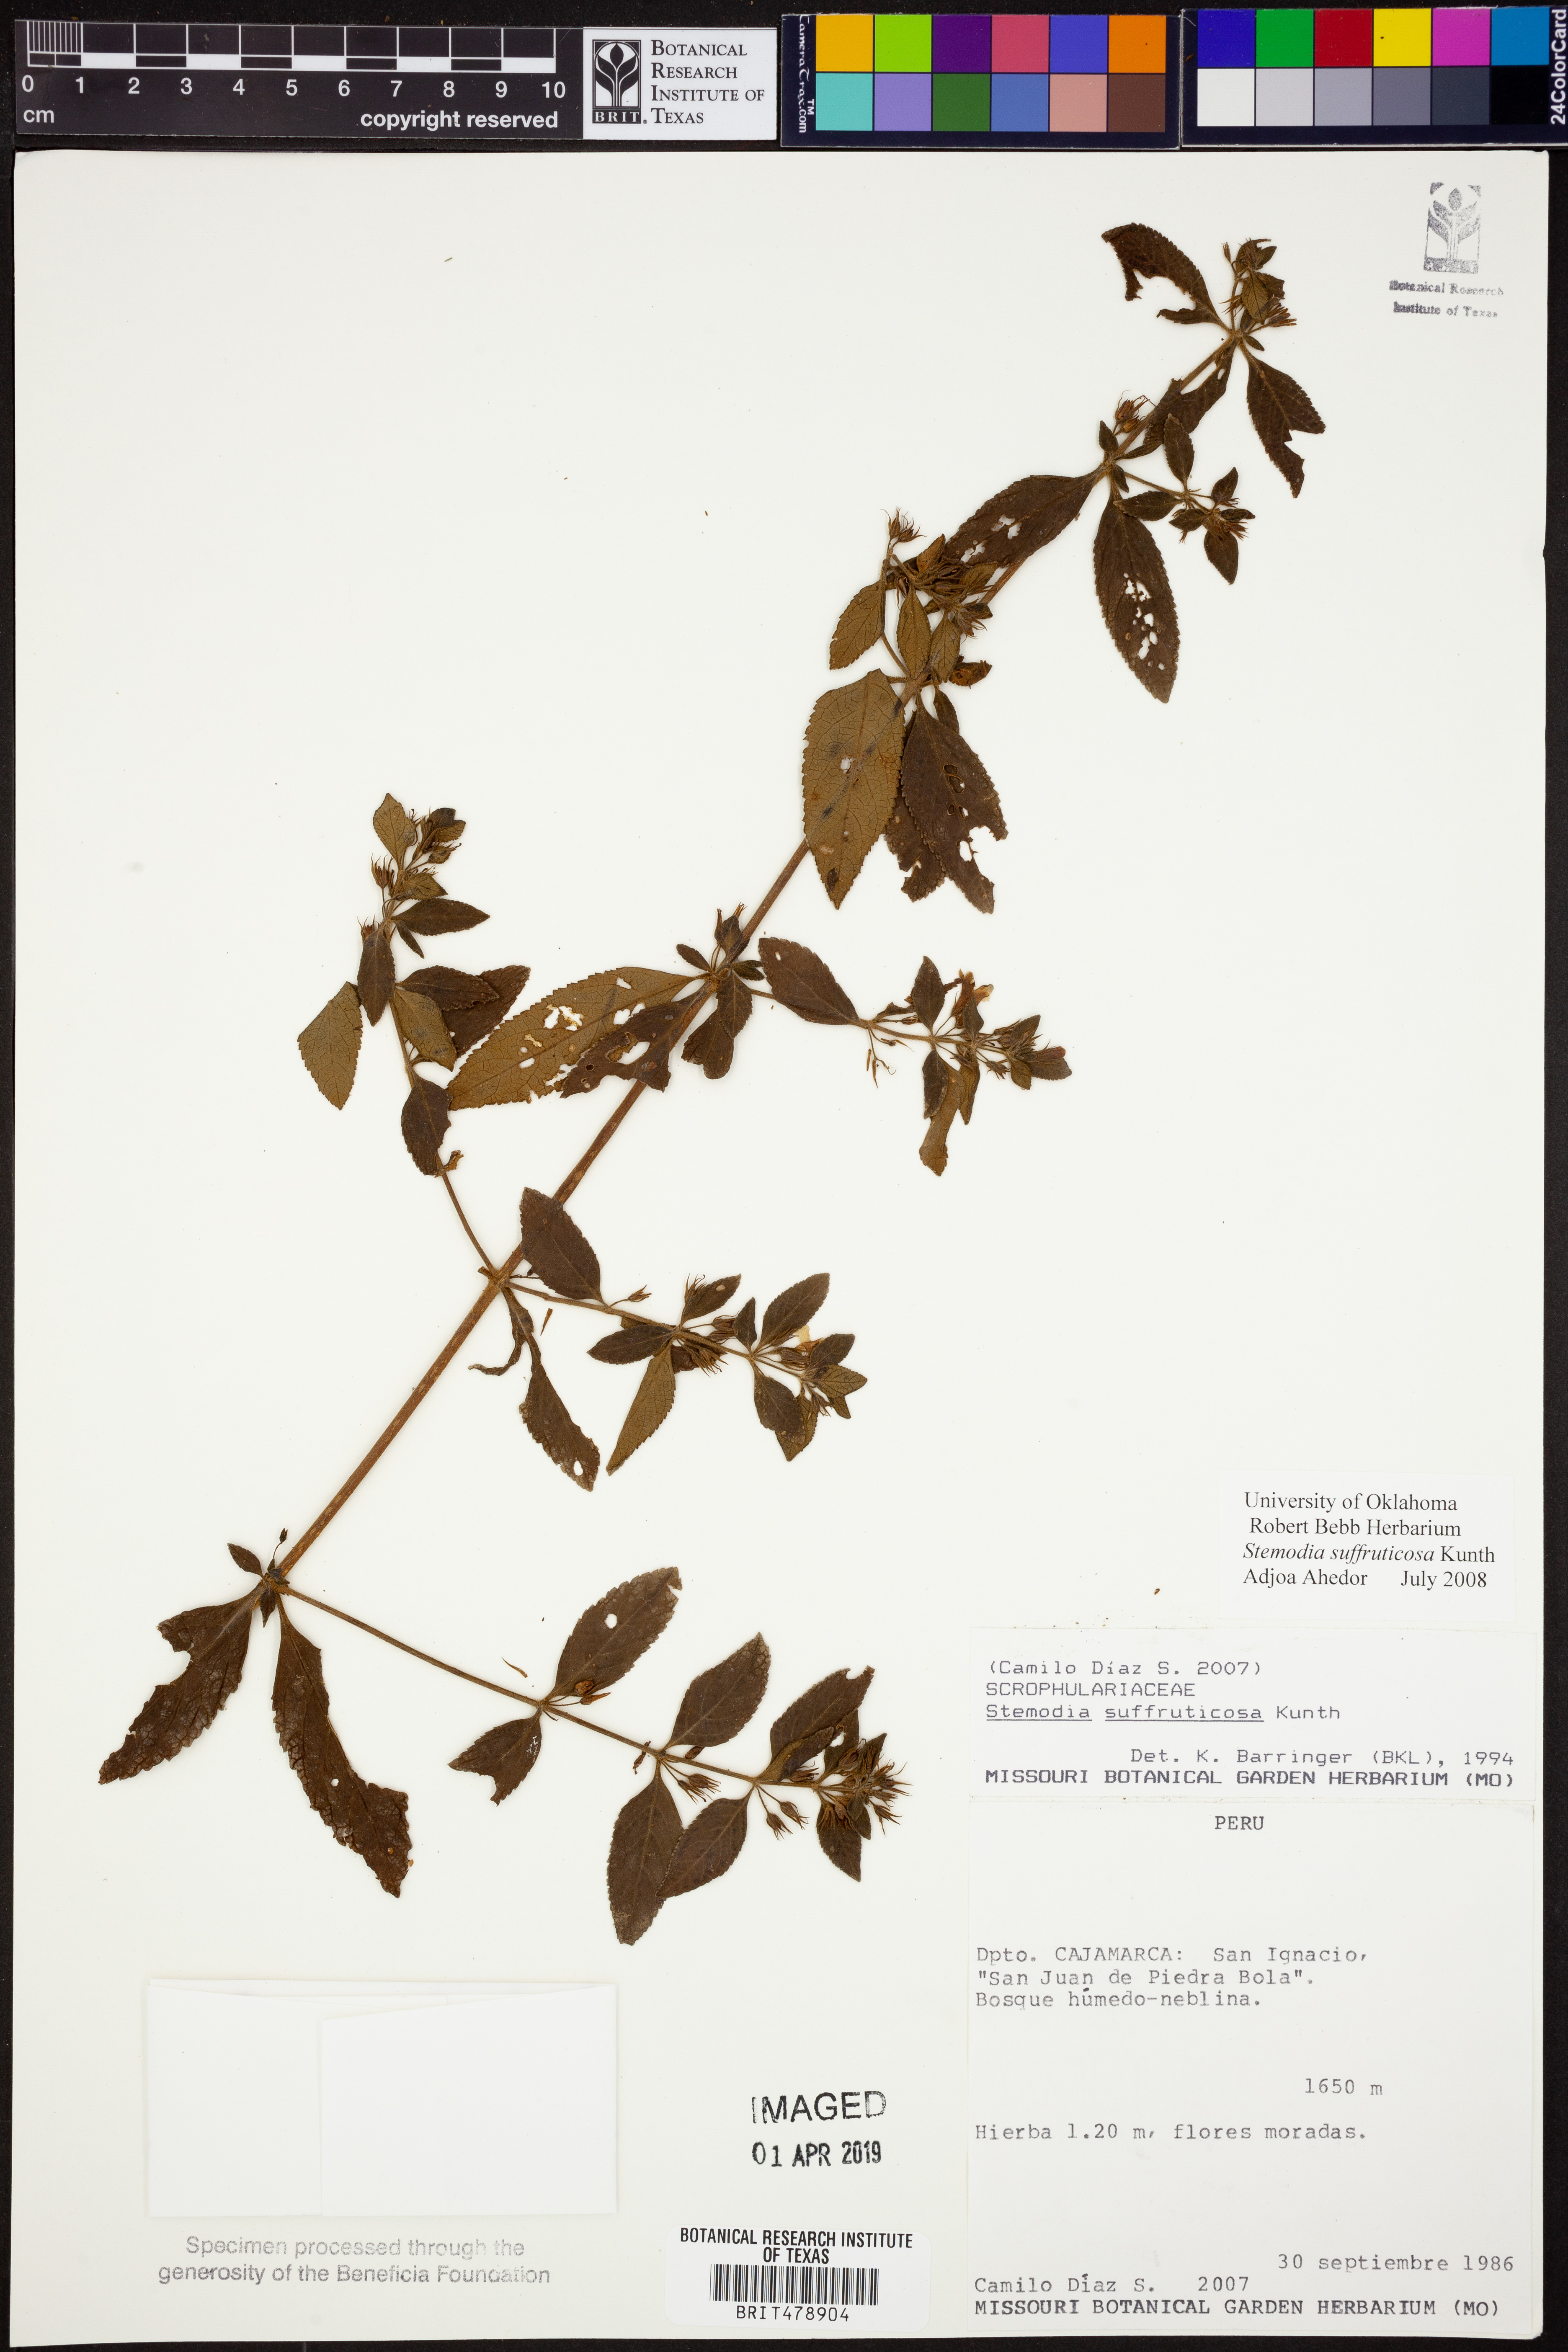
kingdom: Plantae
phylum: Tracheophyta
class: Magnoliopsida
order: Lamiales
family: Plantaginaceae
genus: Stemodia
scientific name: Stemodia suffruticosa
